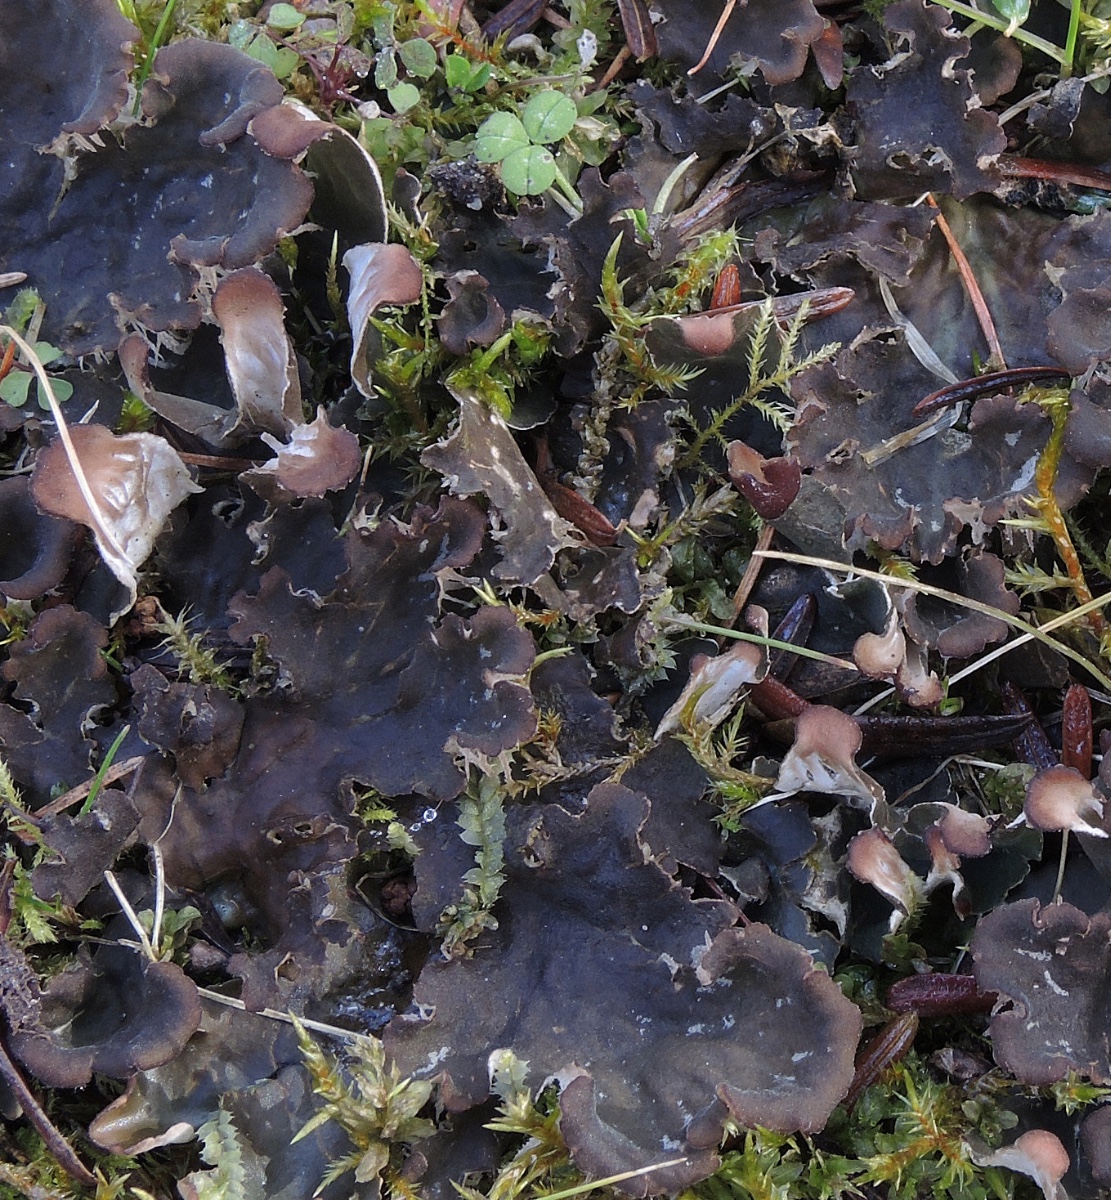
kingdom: Fungi
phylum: Ascomycota
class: Lecanoromycetes
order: Peltigerales
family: Peltigeraceae
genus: Peltigera
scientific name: Peltigera membranacea
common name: tynd skjoldlav
